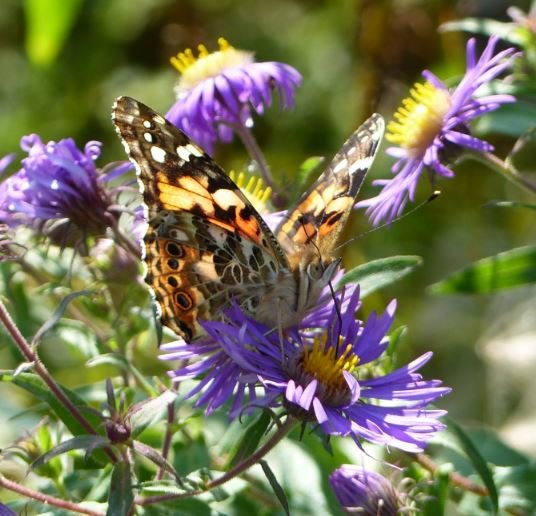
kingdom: Animalia
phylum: Arthropoda
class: Insecta
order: Lepidoptera
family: Nymphalidae
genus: Vanessa
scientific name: Vanessa cardui
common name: Painted Lady
